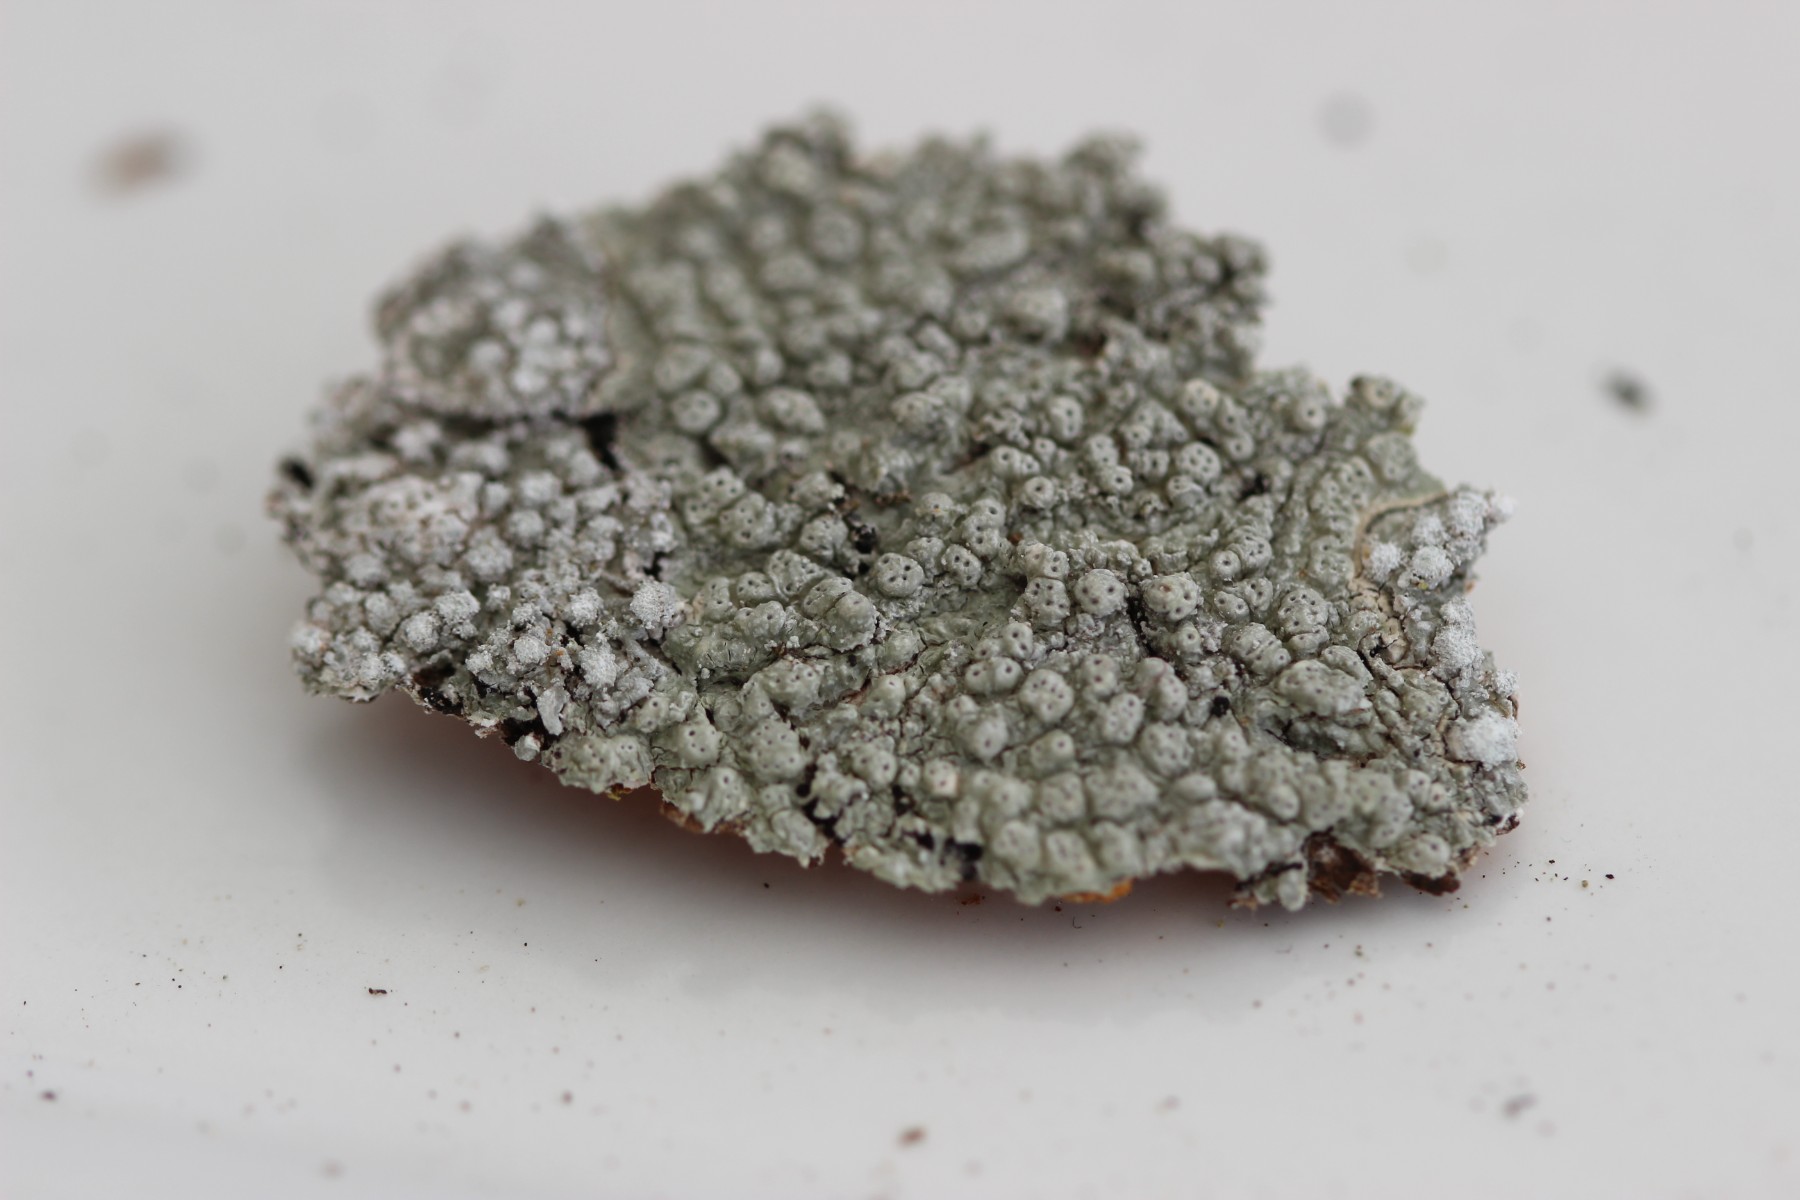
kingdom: Fungi
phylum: Ascomycota
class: Lecanoromycetes
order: Pertusariales
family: Pertusariaceae
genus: Pertusaria
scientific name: Pertusaria pertusa
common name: almindelig prikvortelav
